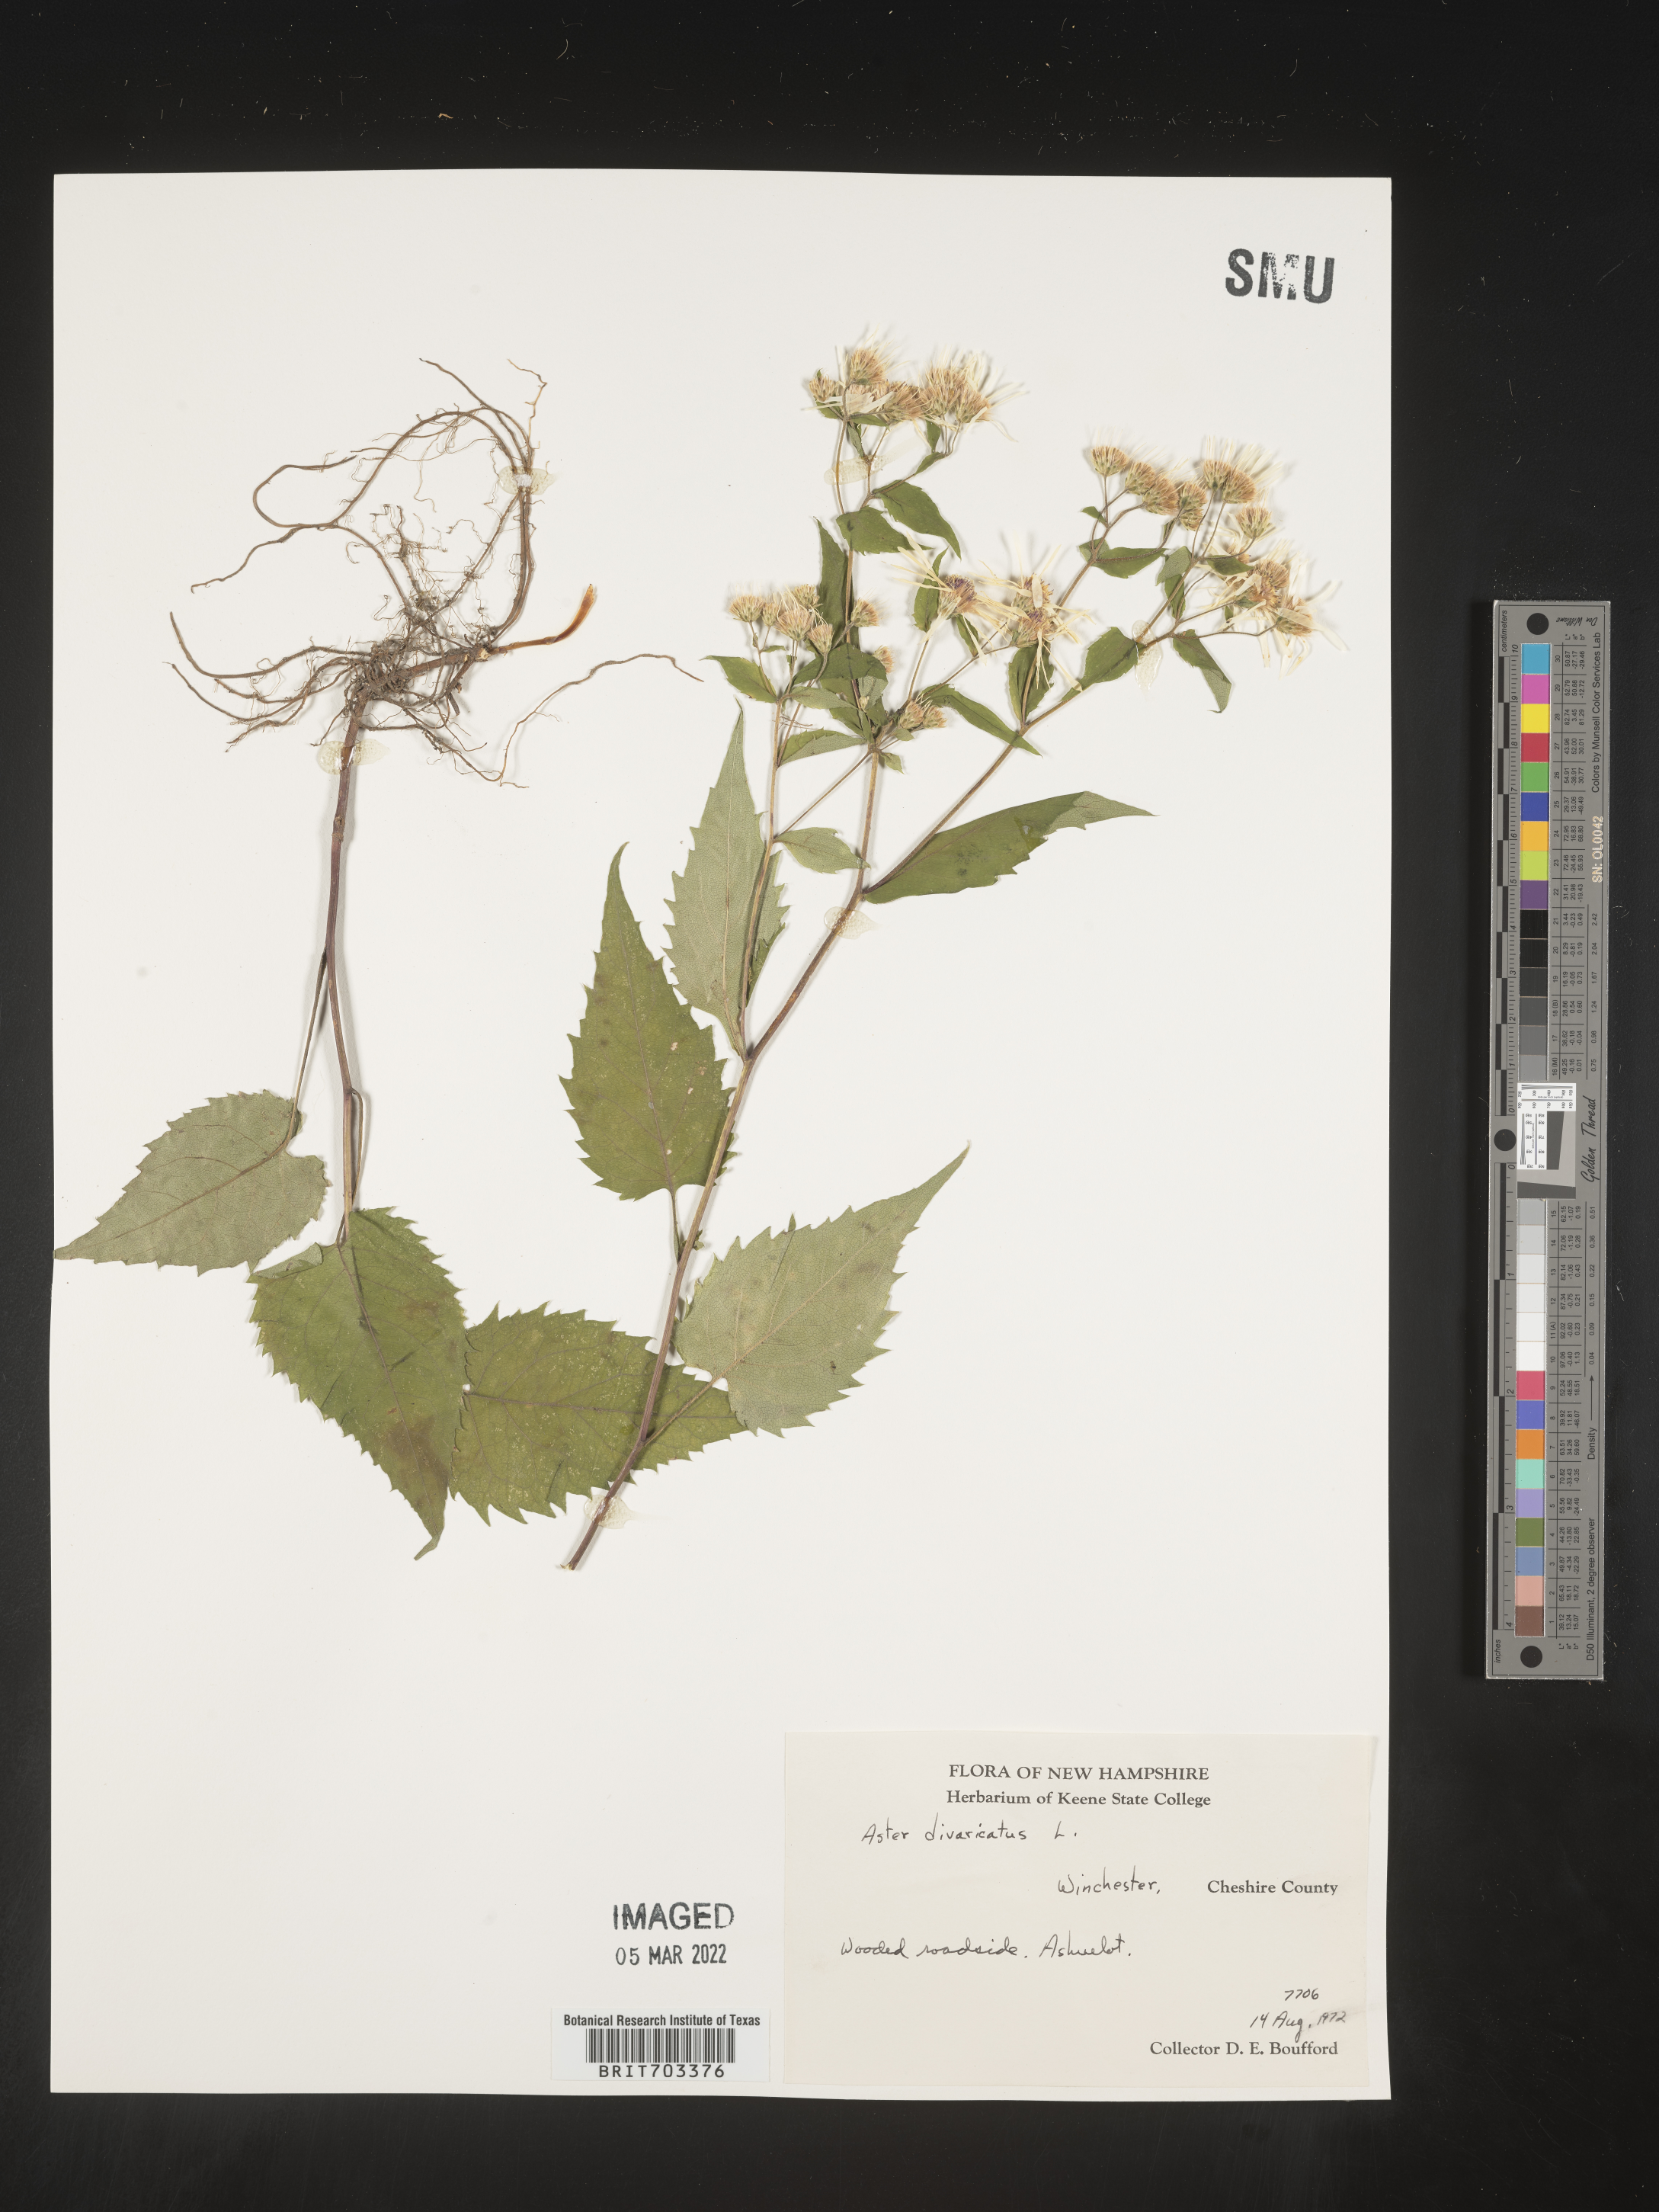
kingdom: Plantae
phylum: Tracheophyta
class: Magnoliopsida
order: Asterales
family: Asteraceae
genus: Eurybia
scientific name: Eurybia divaricata
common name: White wood aster
